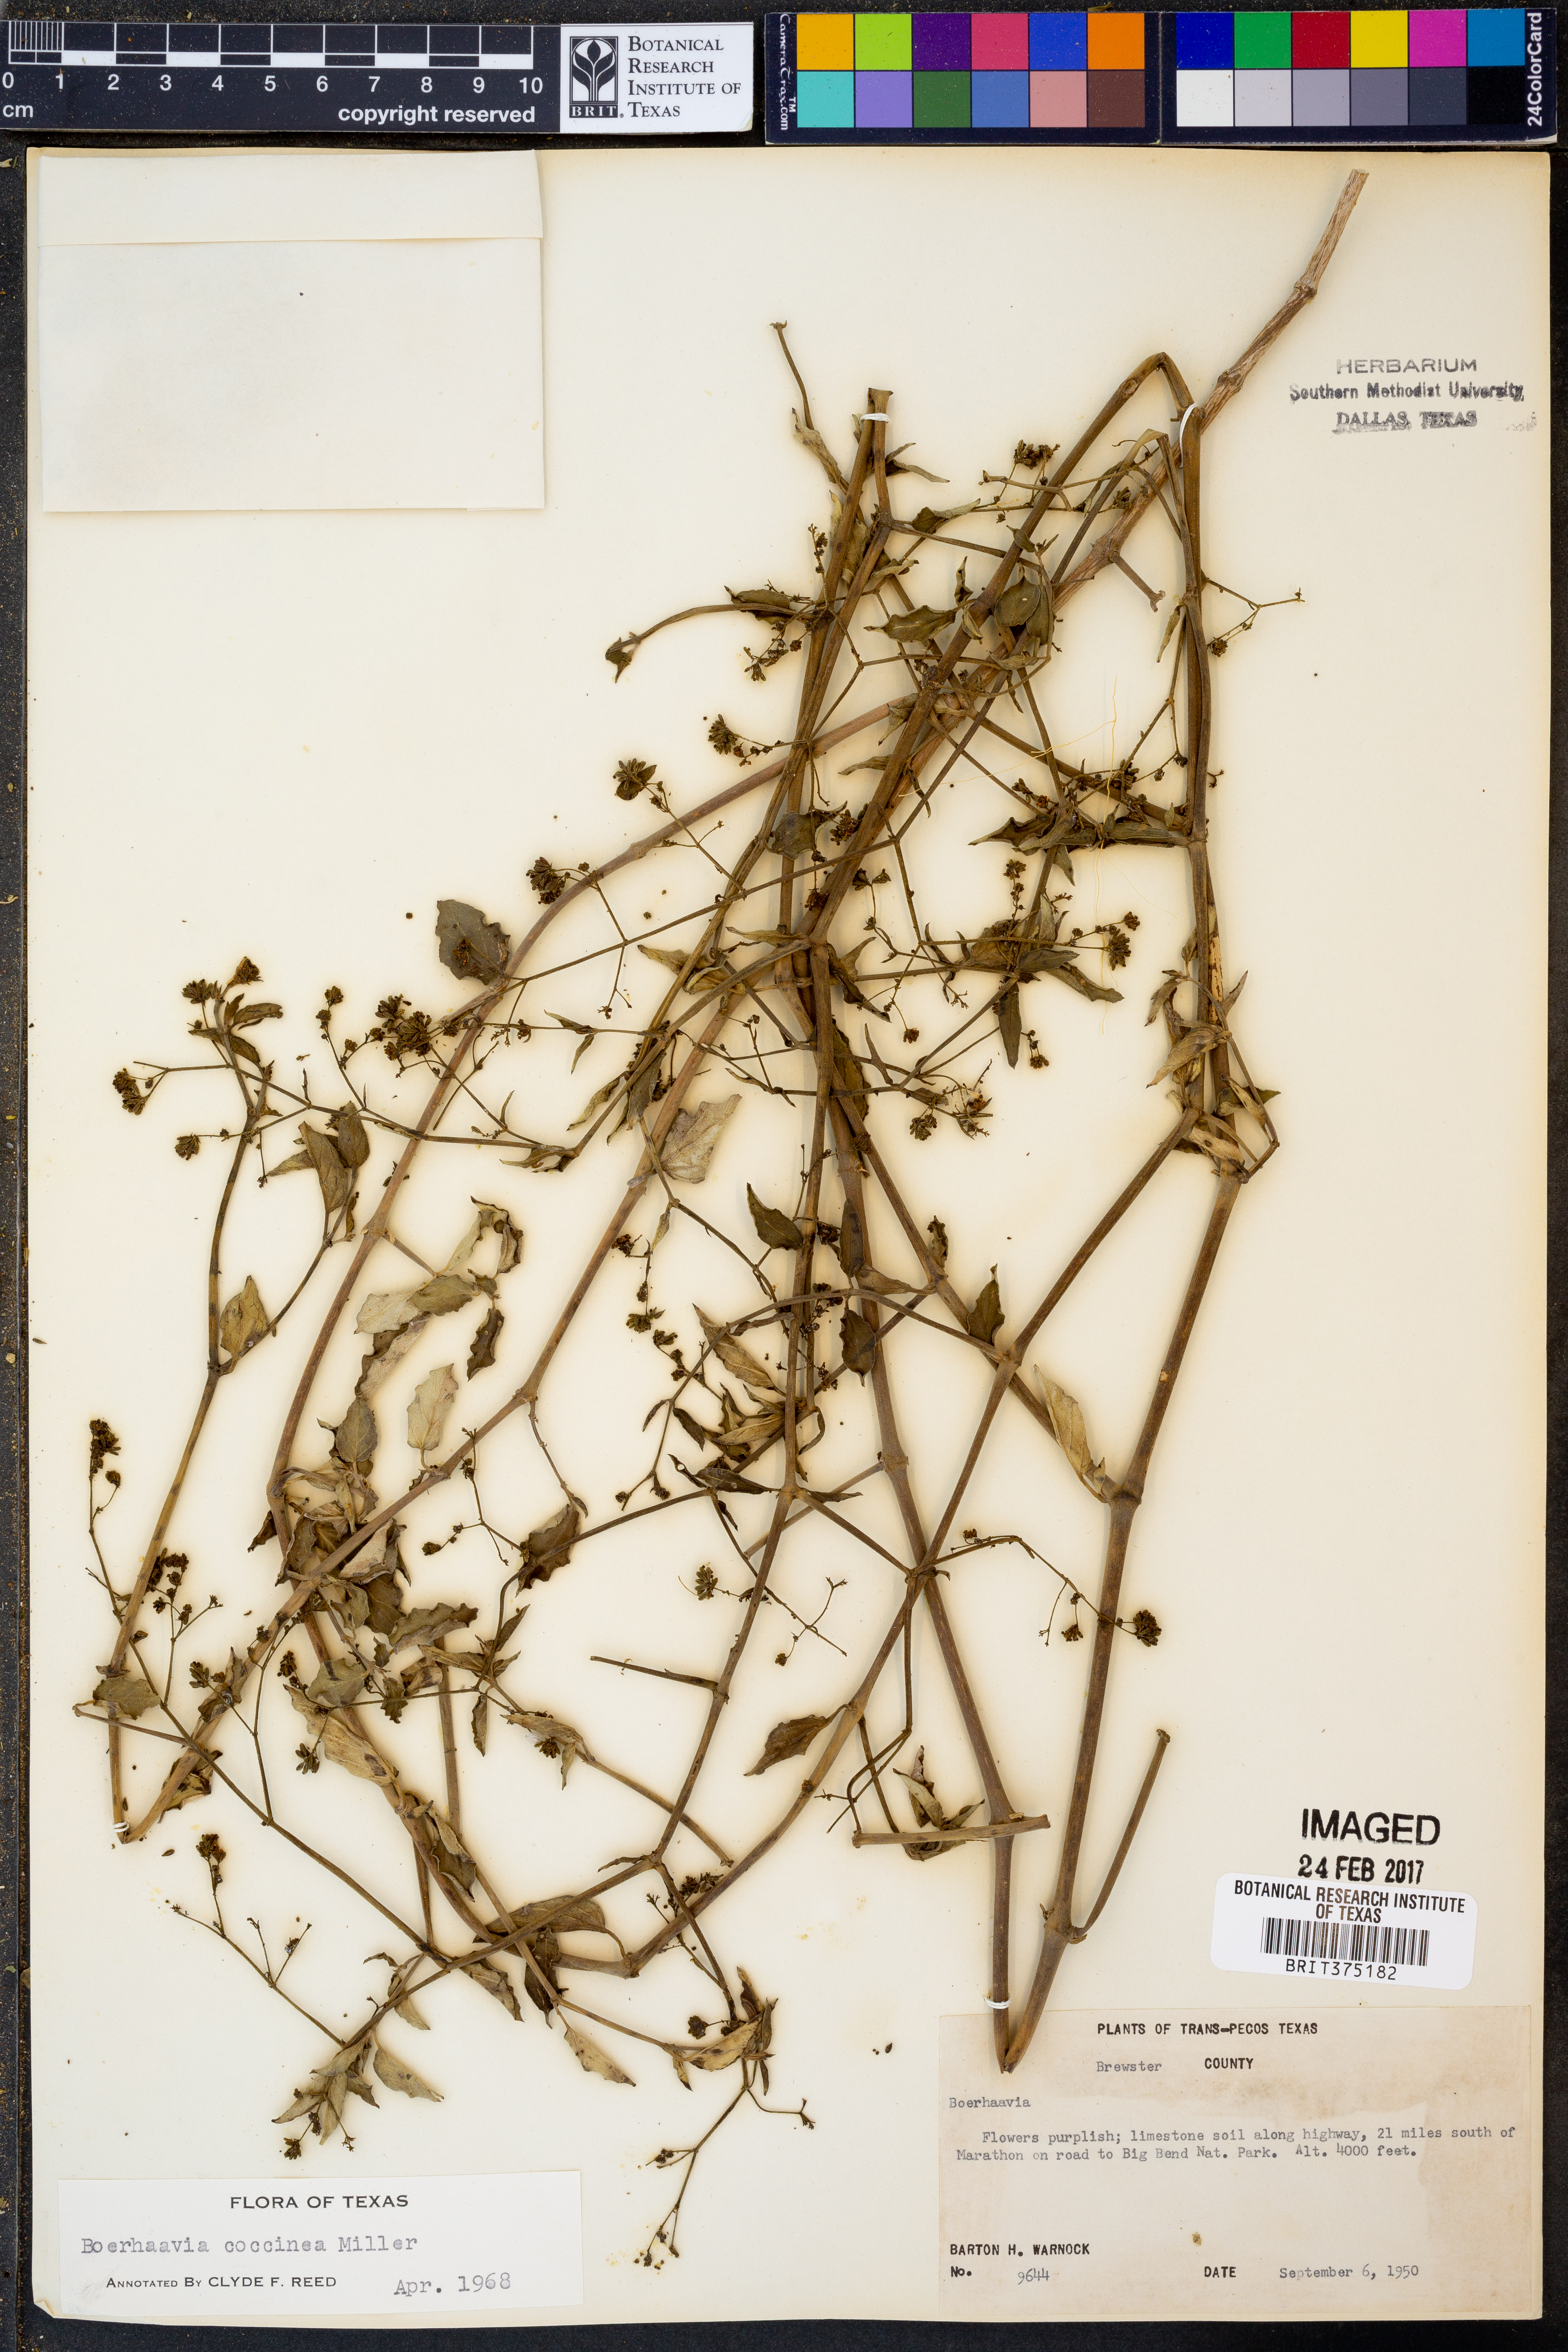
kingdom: Plantae
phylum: Tracheophyta
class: Magnoliopsida
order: Caryophyllales
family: Nyctaginaceae
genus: Boerhavia
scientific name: Boerhavia coccinea
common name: Scarlet spiderling
